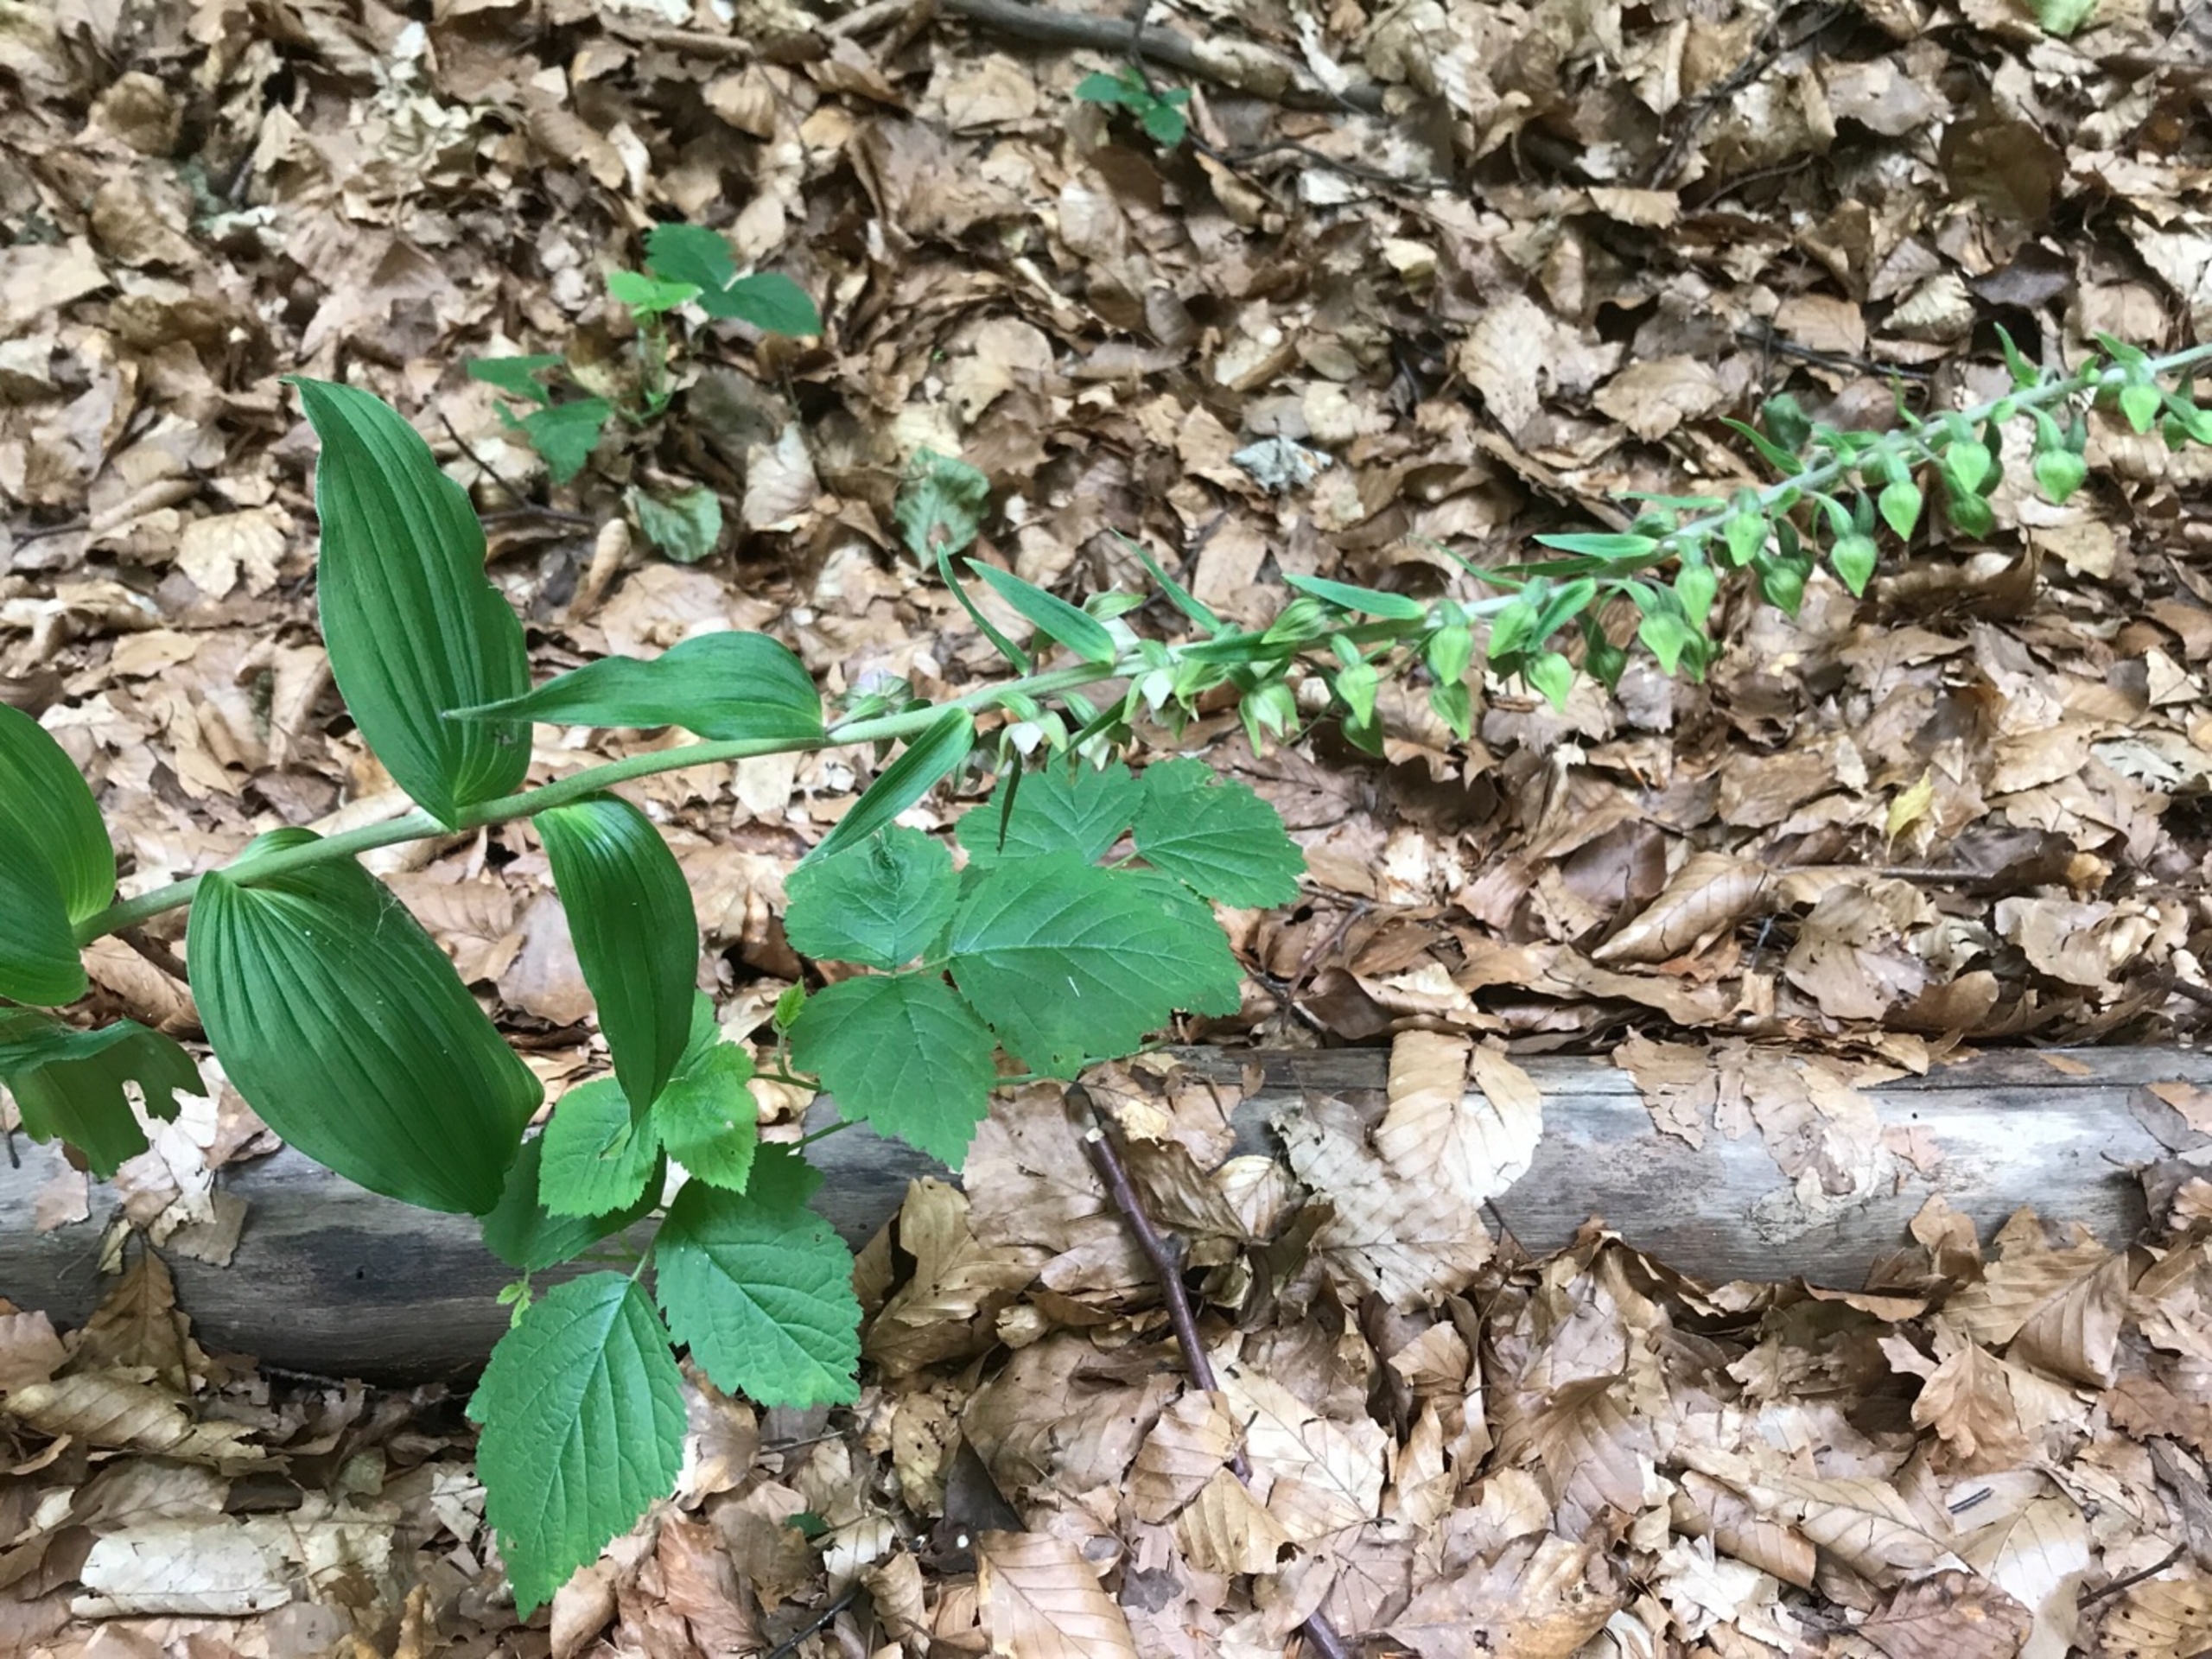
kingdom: Plantae
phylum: Tracheophyta
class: Liliopsida
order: Asparagales
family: Orchidaceae
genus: Epipactis
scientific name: Epipactis helleborine
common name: Skov-hullæbe
